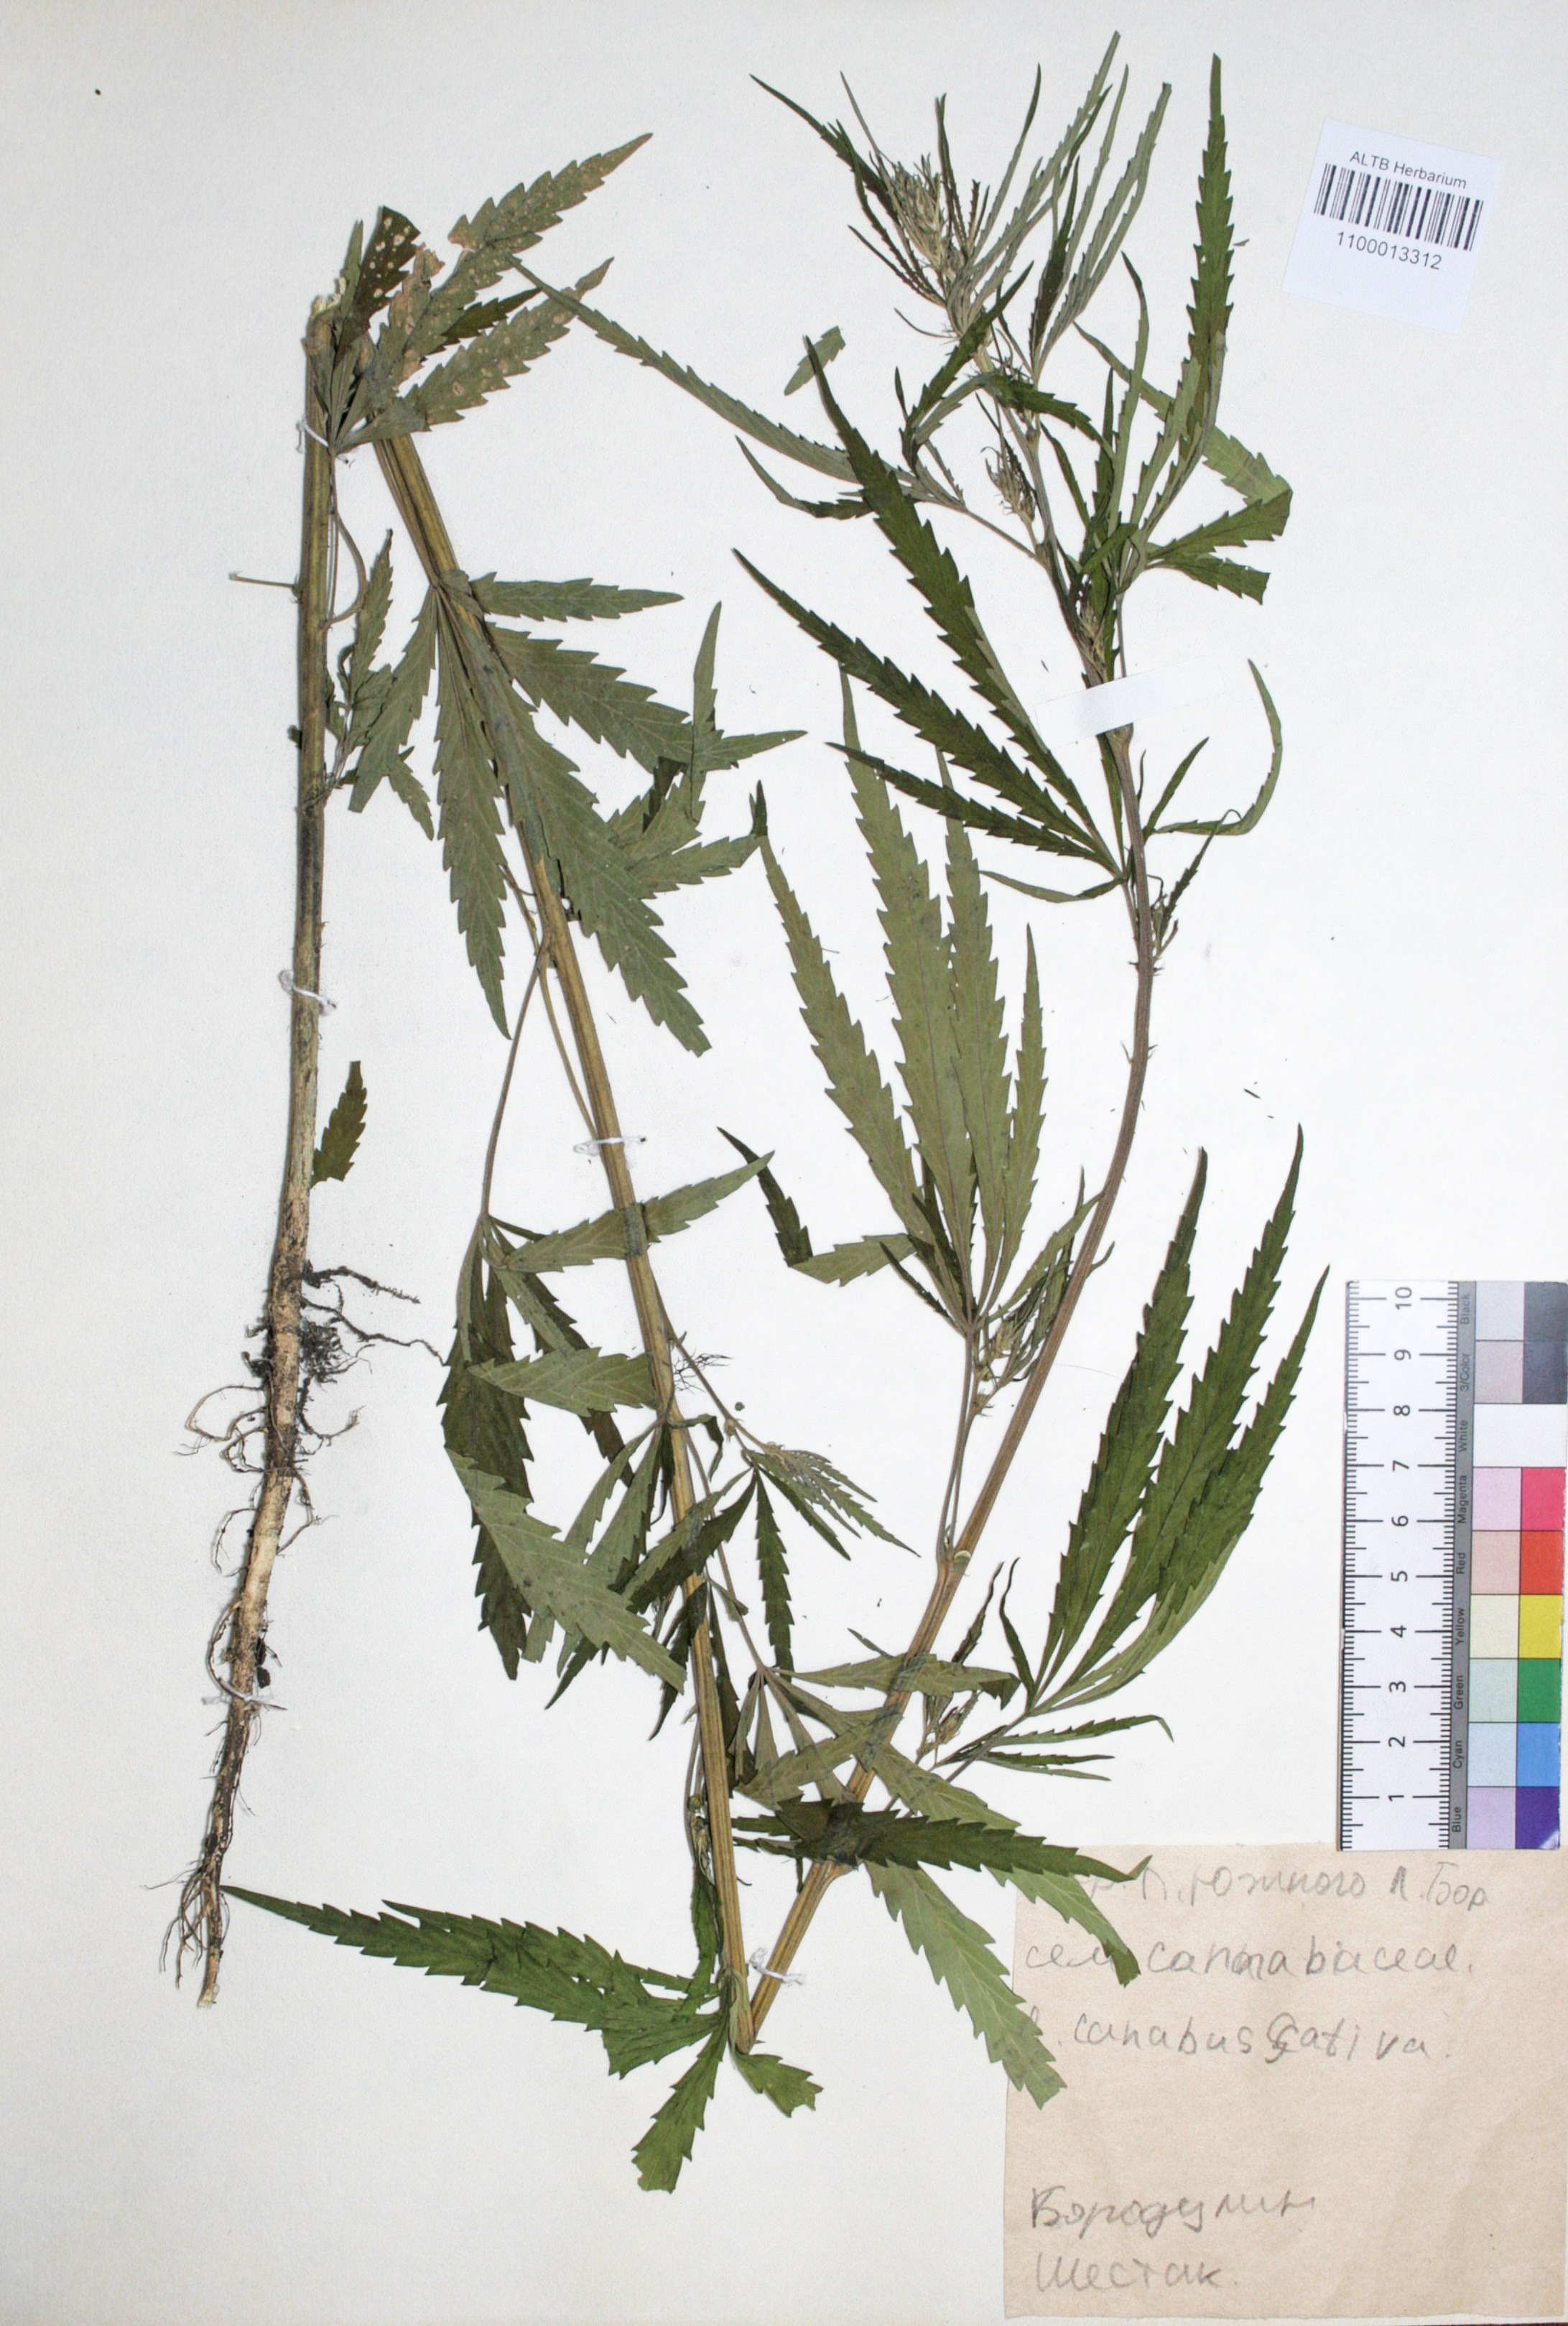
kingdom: Plantae
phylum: Tracheophyta
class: Magnoliopsida
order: Rosales
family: Cannabaceae
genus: Cannabis
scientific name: Cannabis sativa
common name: Hemp
